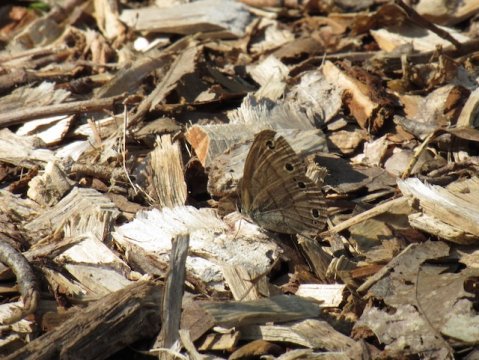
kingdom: Animalia
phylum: Arthropoda
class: Insecta
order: Lepidoptera
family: Nymphalidae
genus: Euptychia
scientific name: Euptychia cymela
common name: Little Wood Satyr
